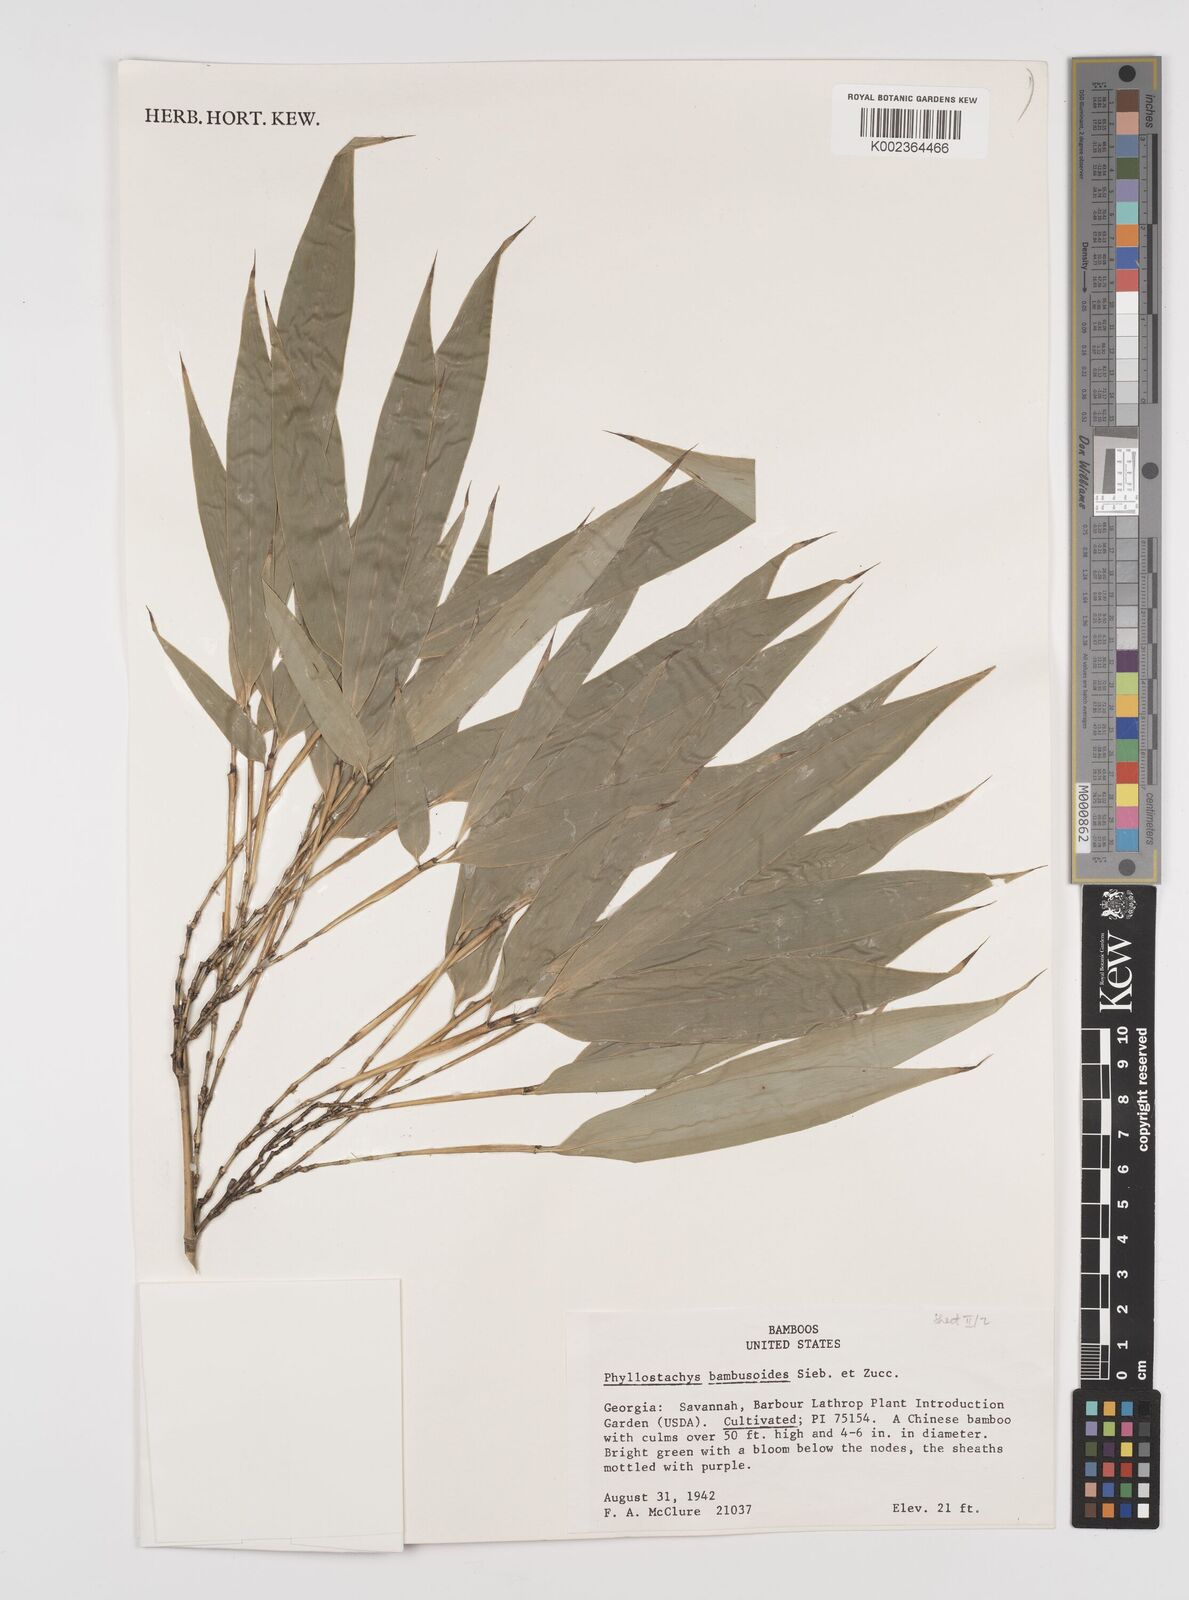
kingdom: Plantae
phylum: Tracheophyta
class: Liliopsida
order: Poales
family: Poaceae
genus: Phyllostachys
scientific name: Phyllostachys reticulata
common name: Bamboo
